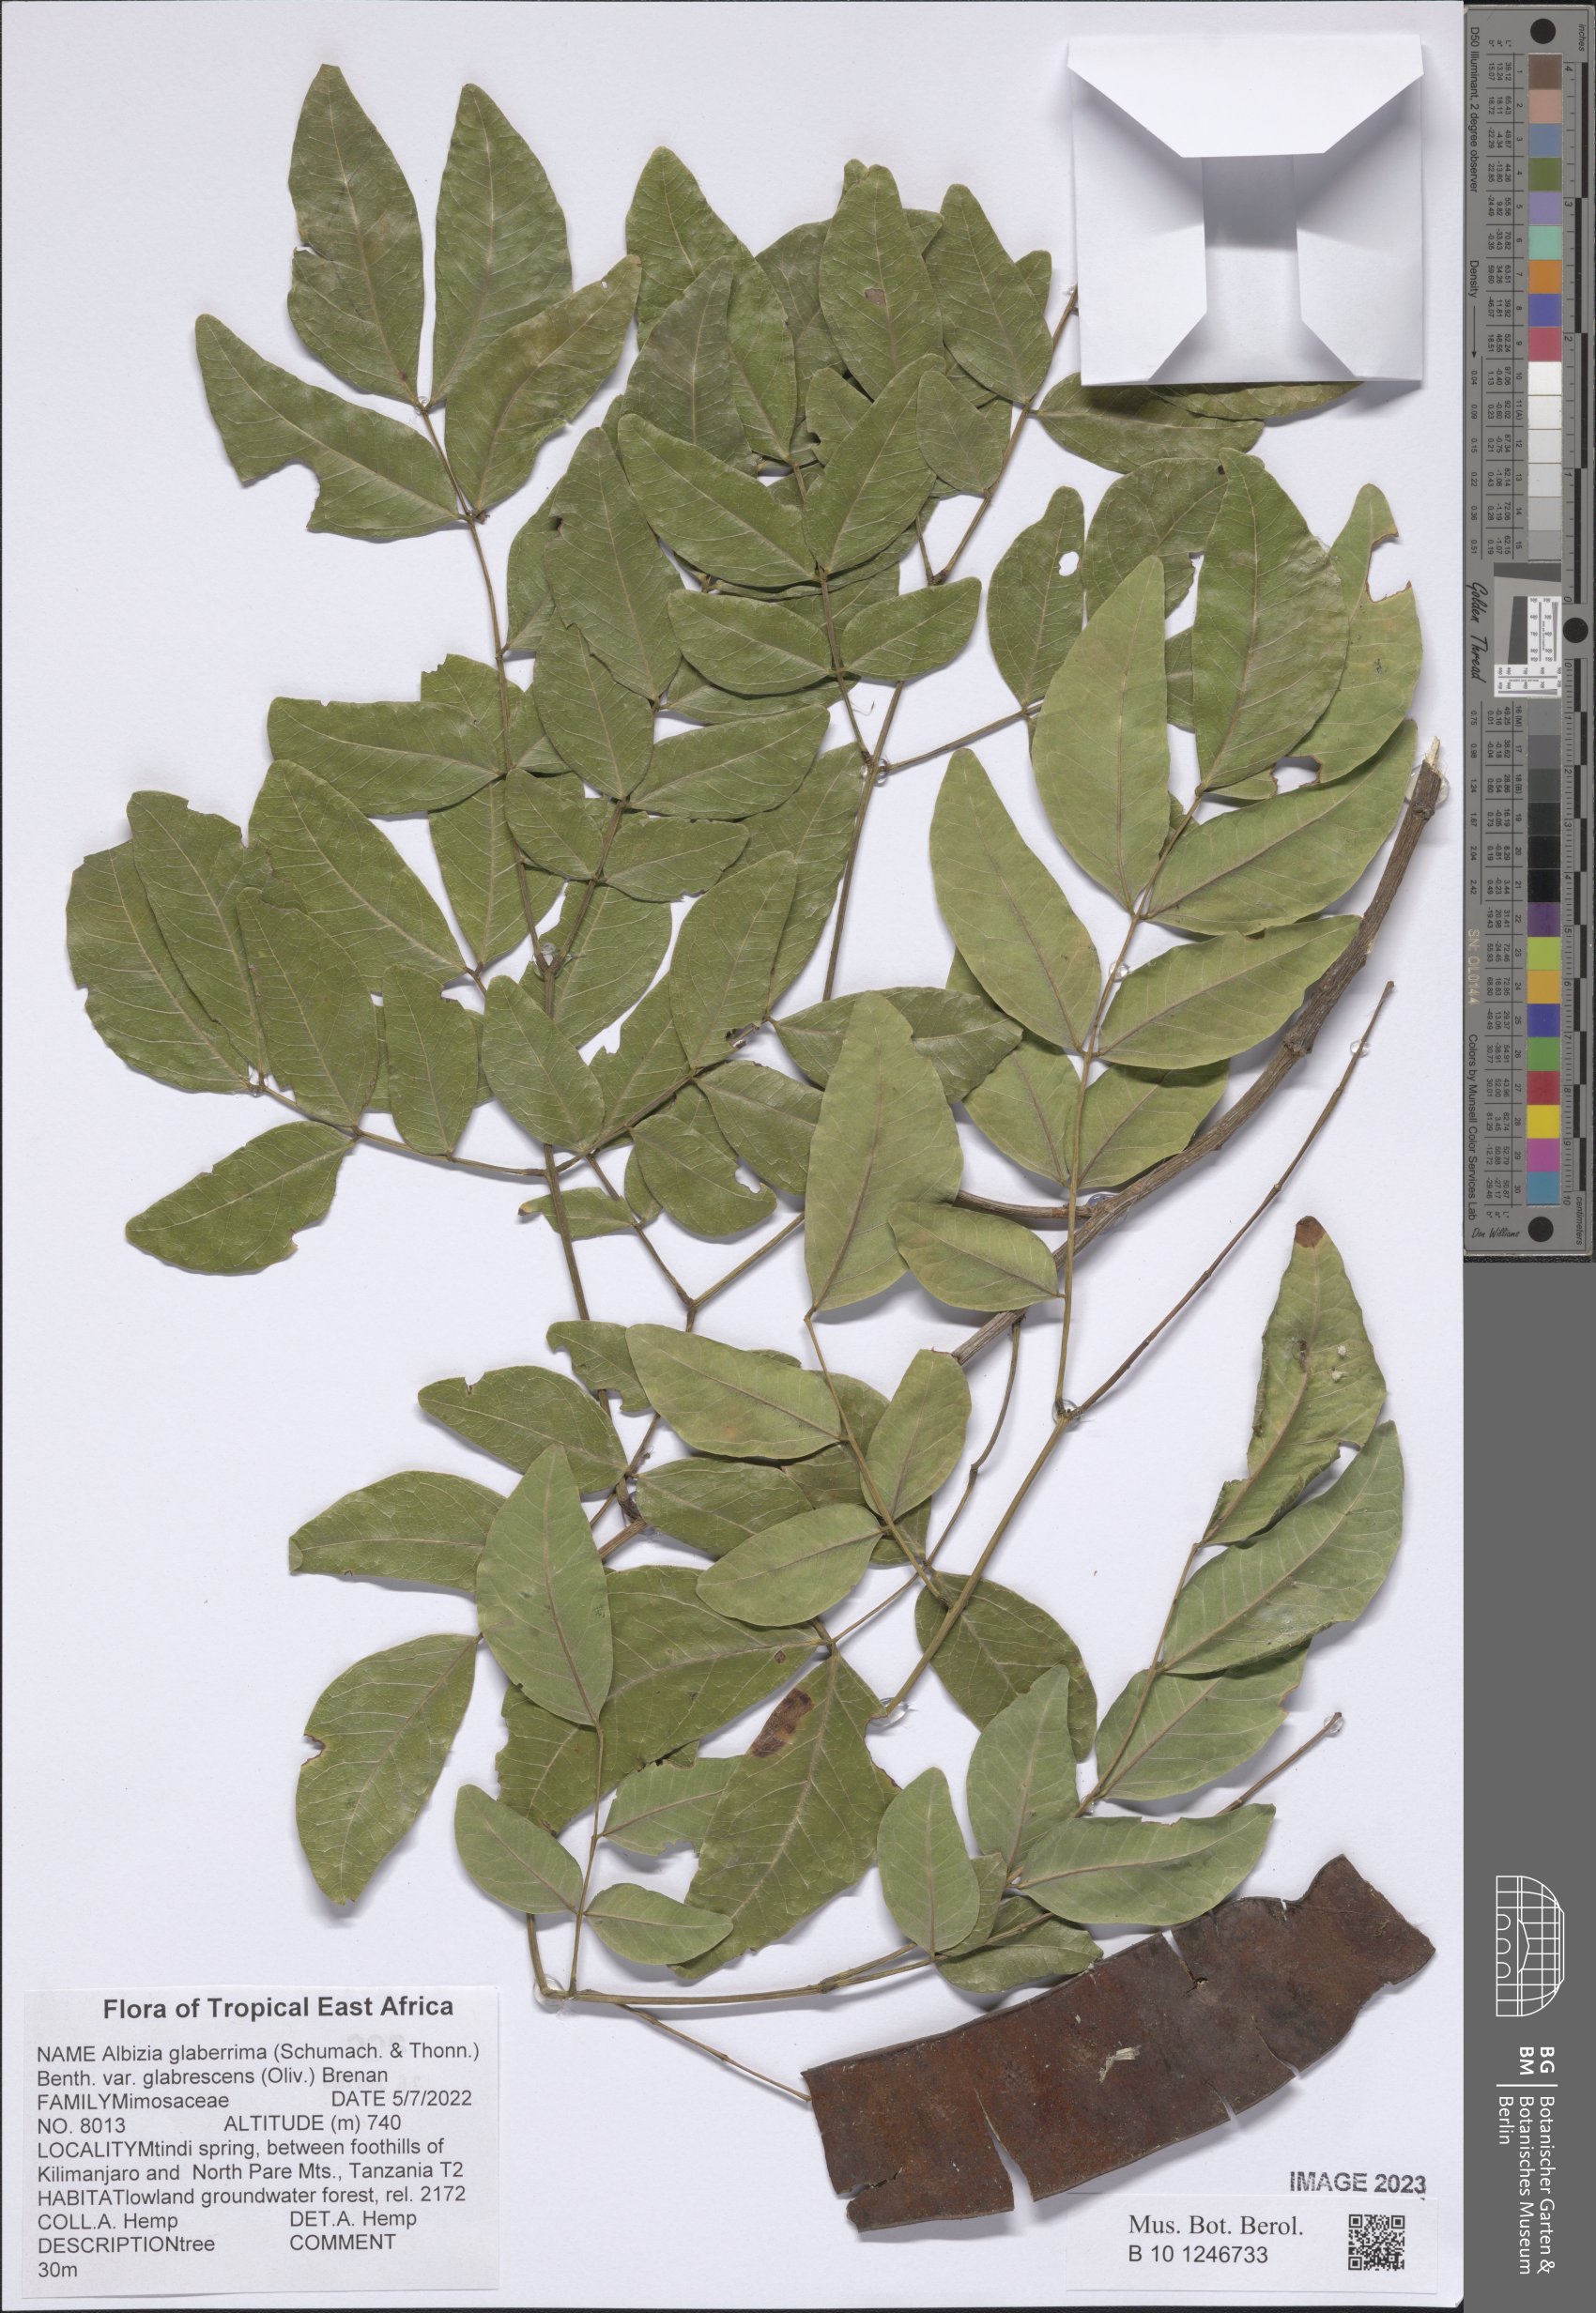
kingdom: Plantae
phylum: Tracheophyta
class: Magnoliopsida
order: Fabales
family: Fabaceae
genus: Albizia
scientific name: Albizia glaberrima
